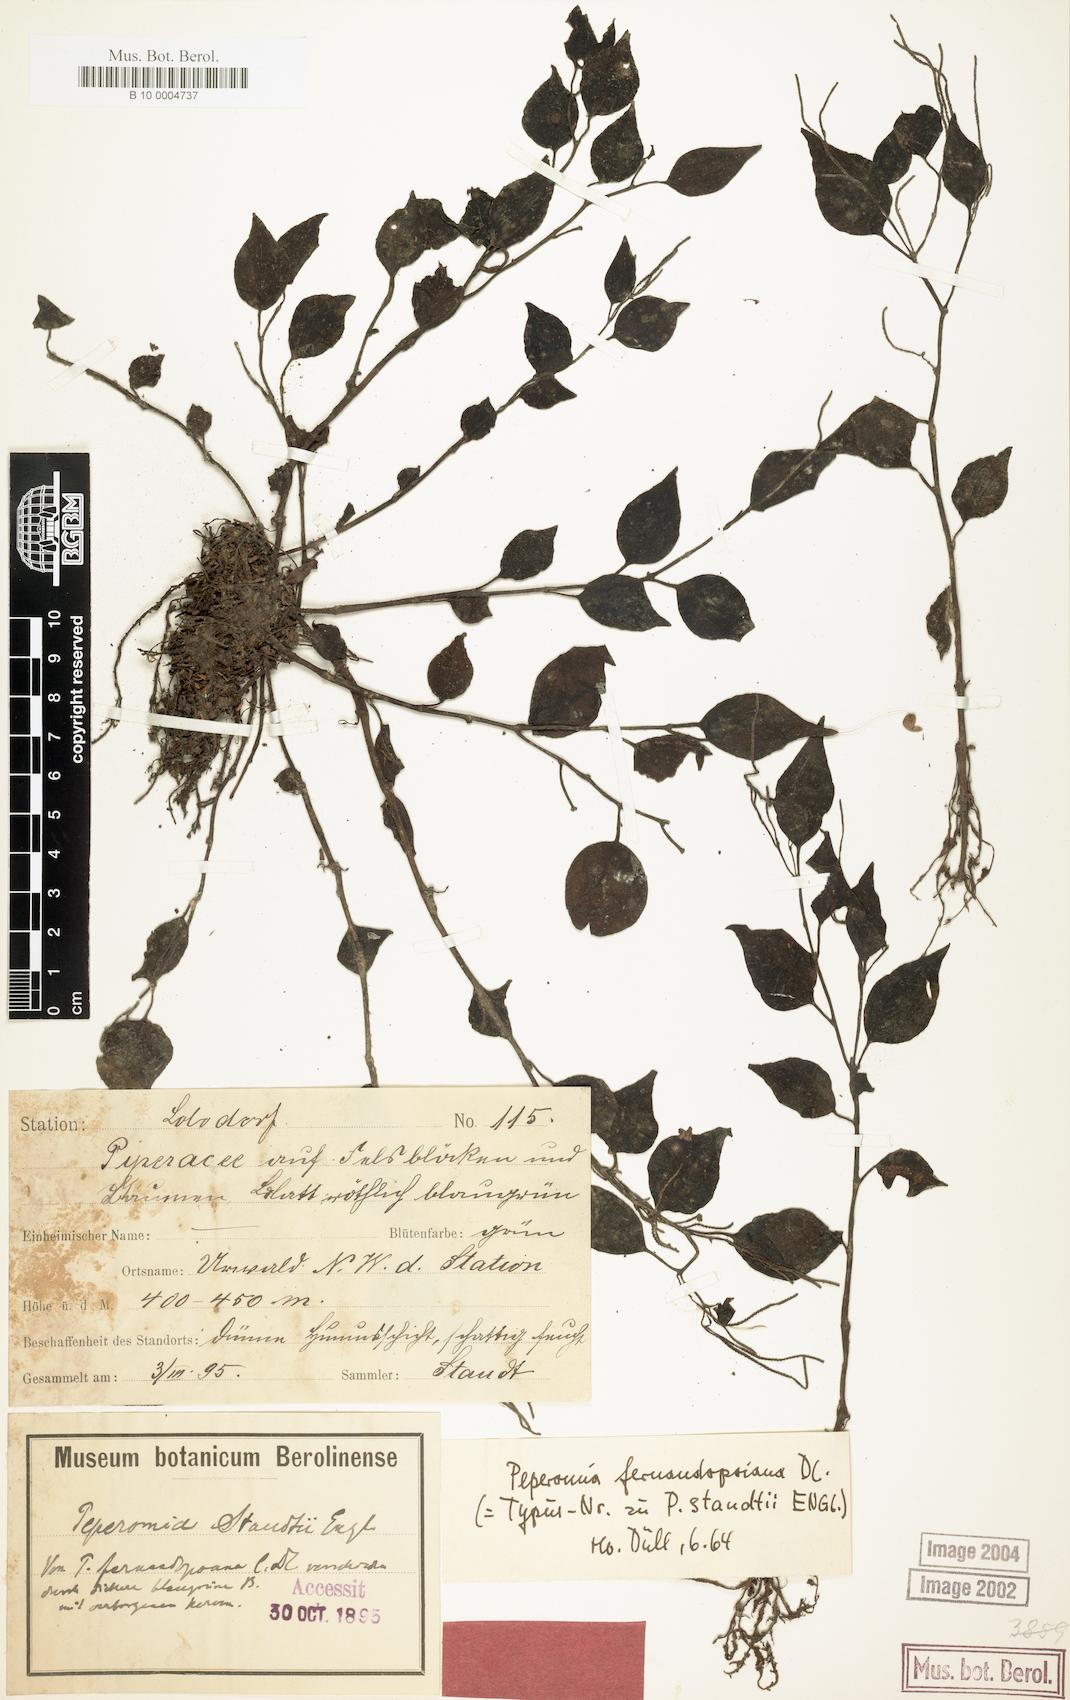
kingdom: Plantae
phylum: Tracheophyta
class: Magnoliopsida
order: Piperales
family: Piperaceae
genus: Peperomia
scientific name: Peperomia fernandopoiana
